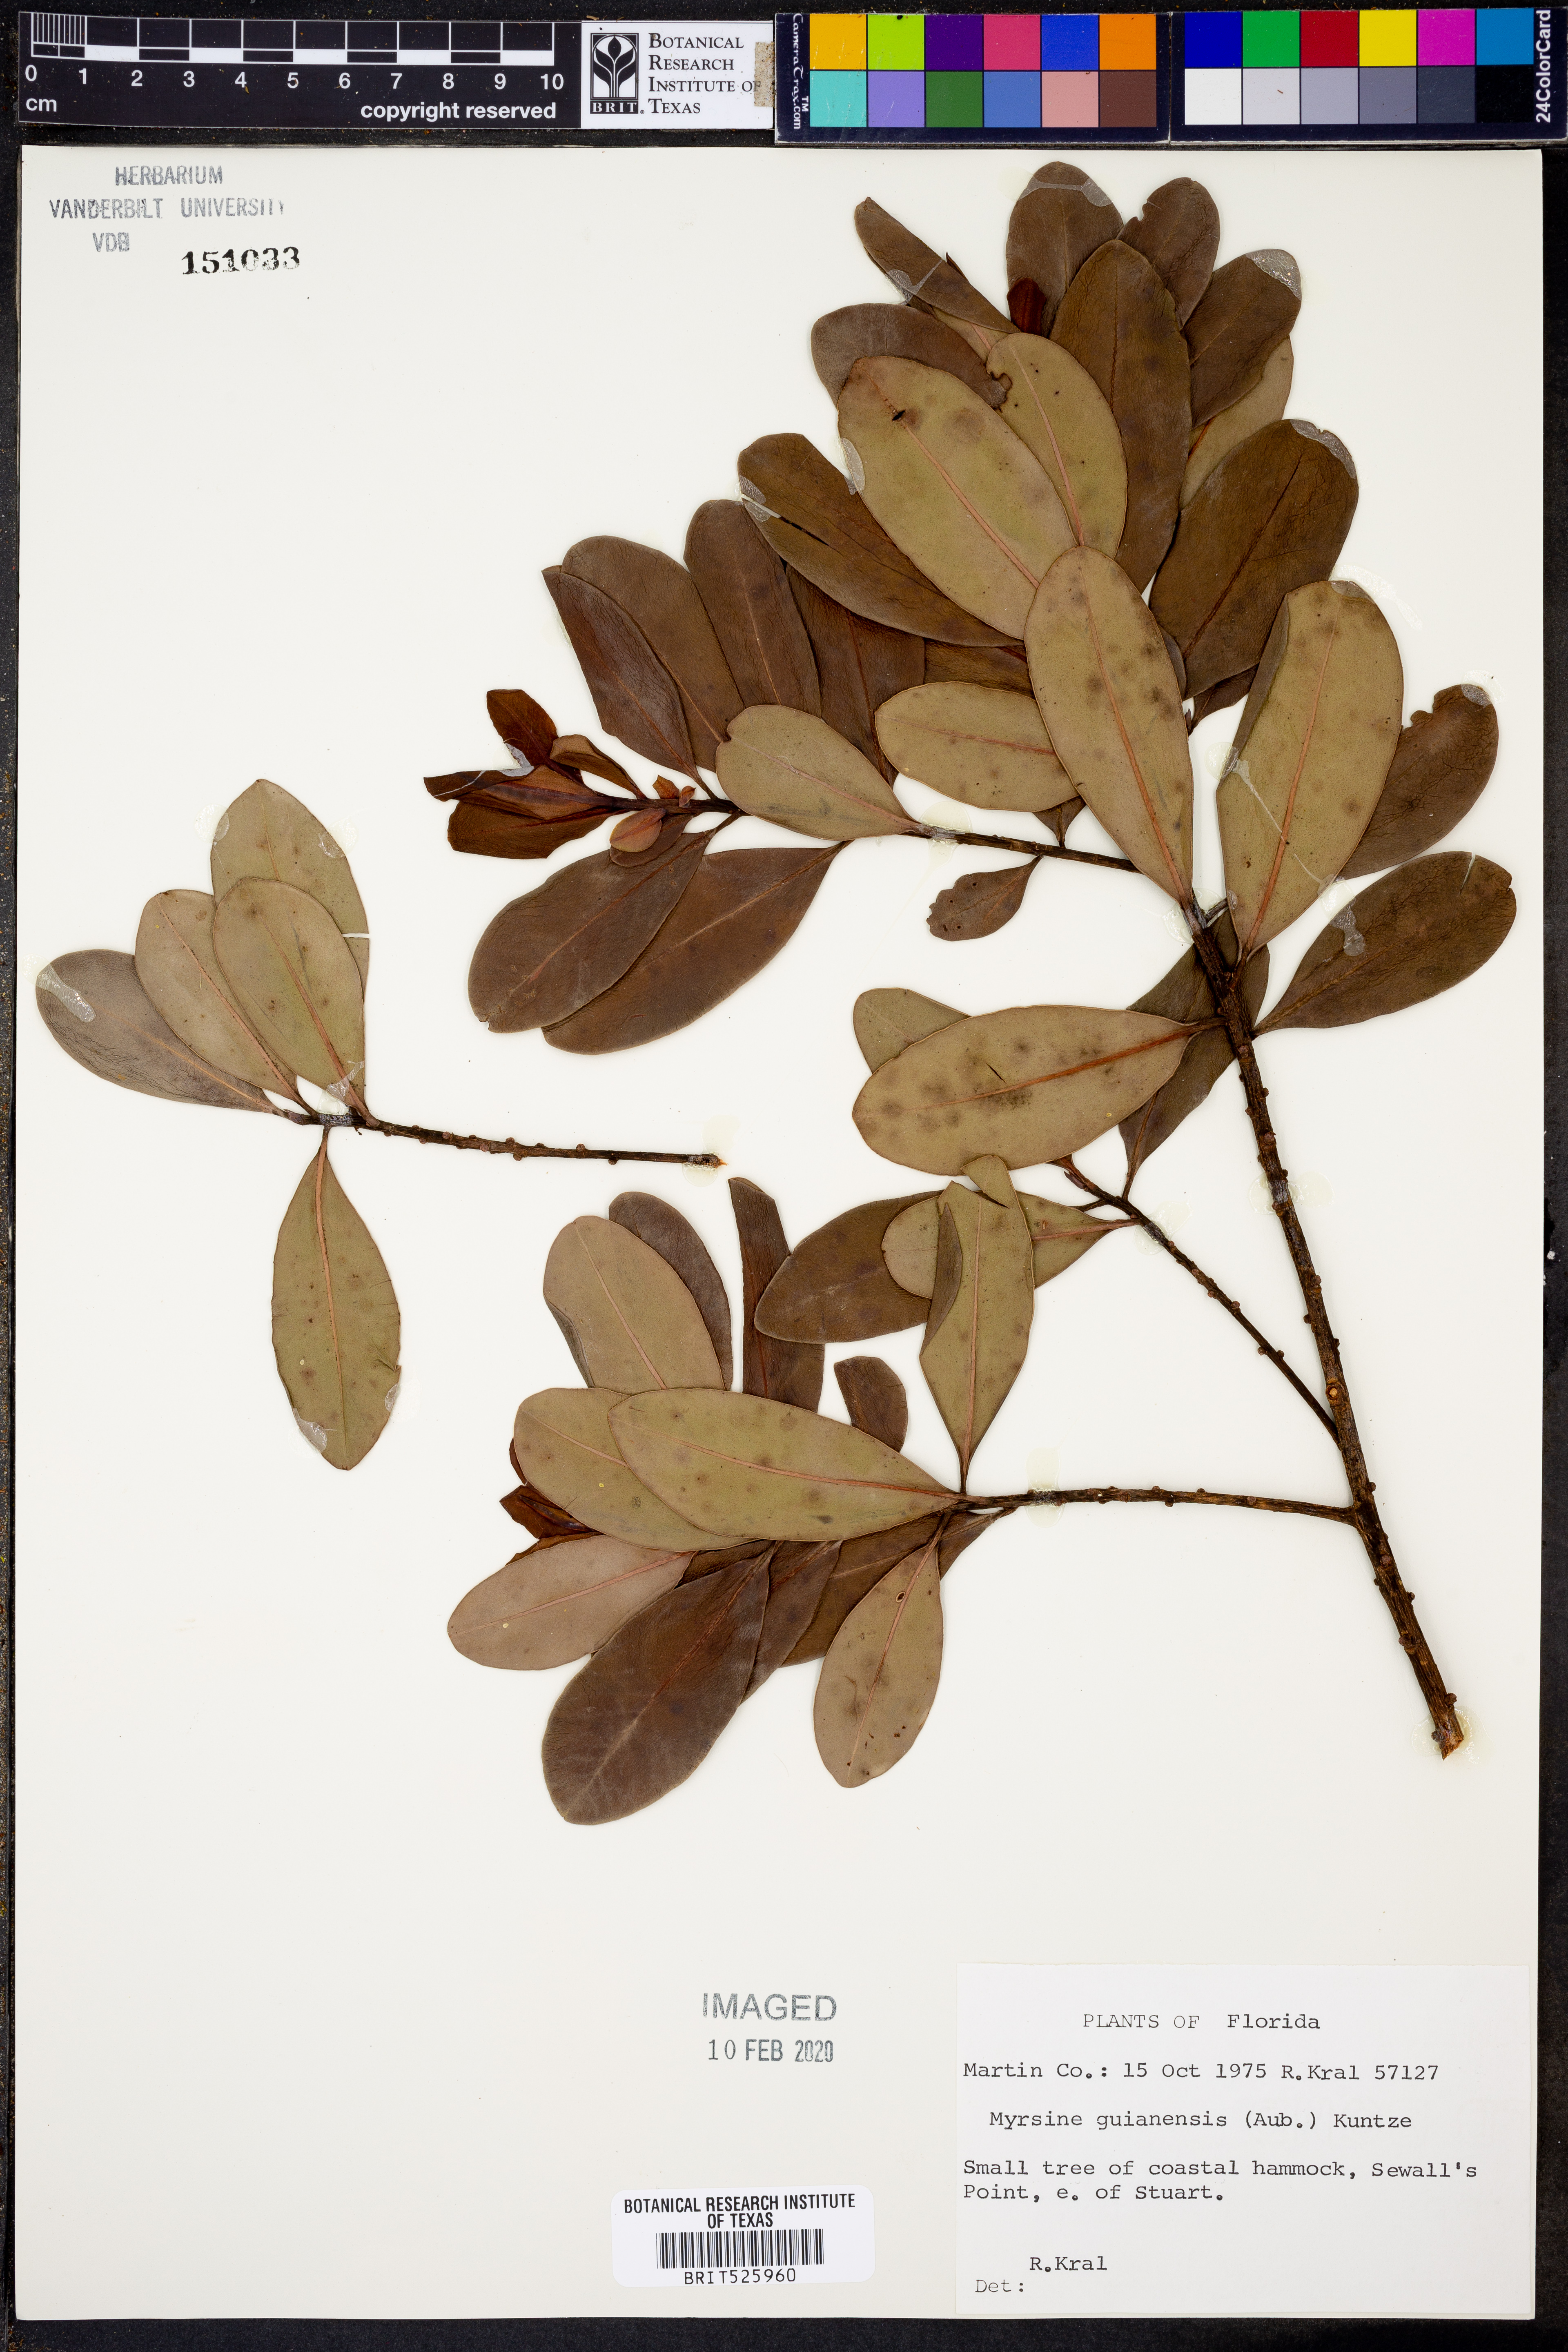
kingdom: Plantae
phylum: Tracheophyta
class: Magnoliopsida
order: Ericales
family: Primulaceae
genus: Myrsine
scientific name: Myrsine guianensis
